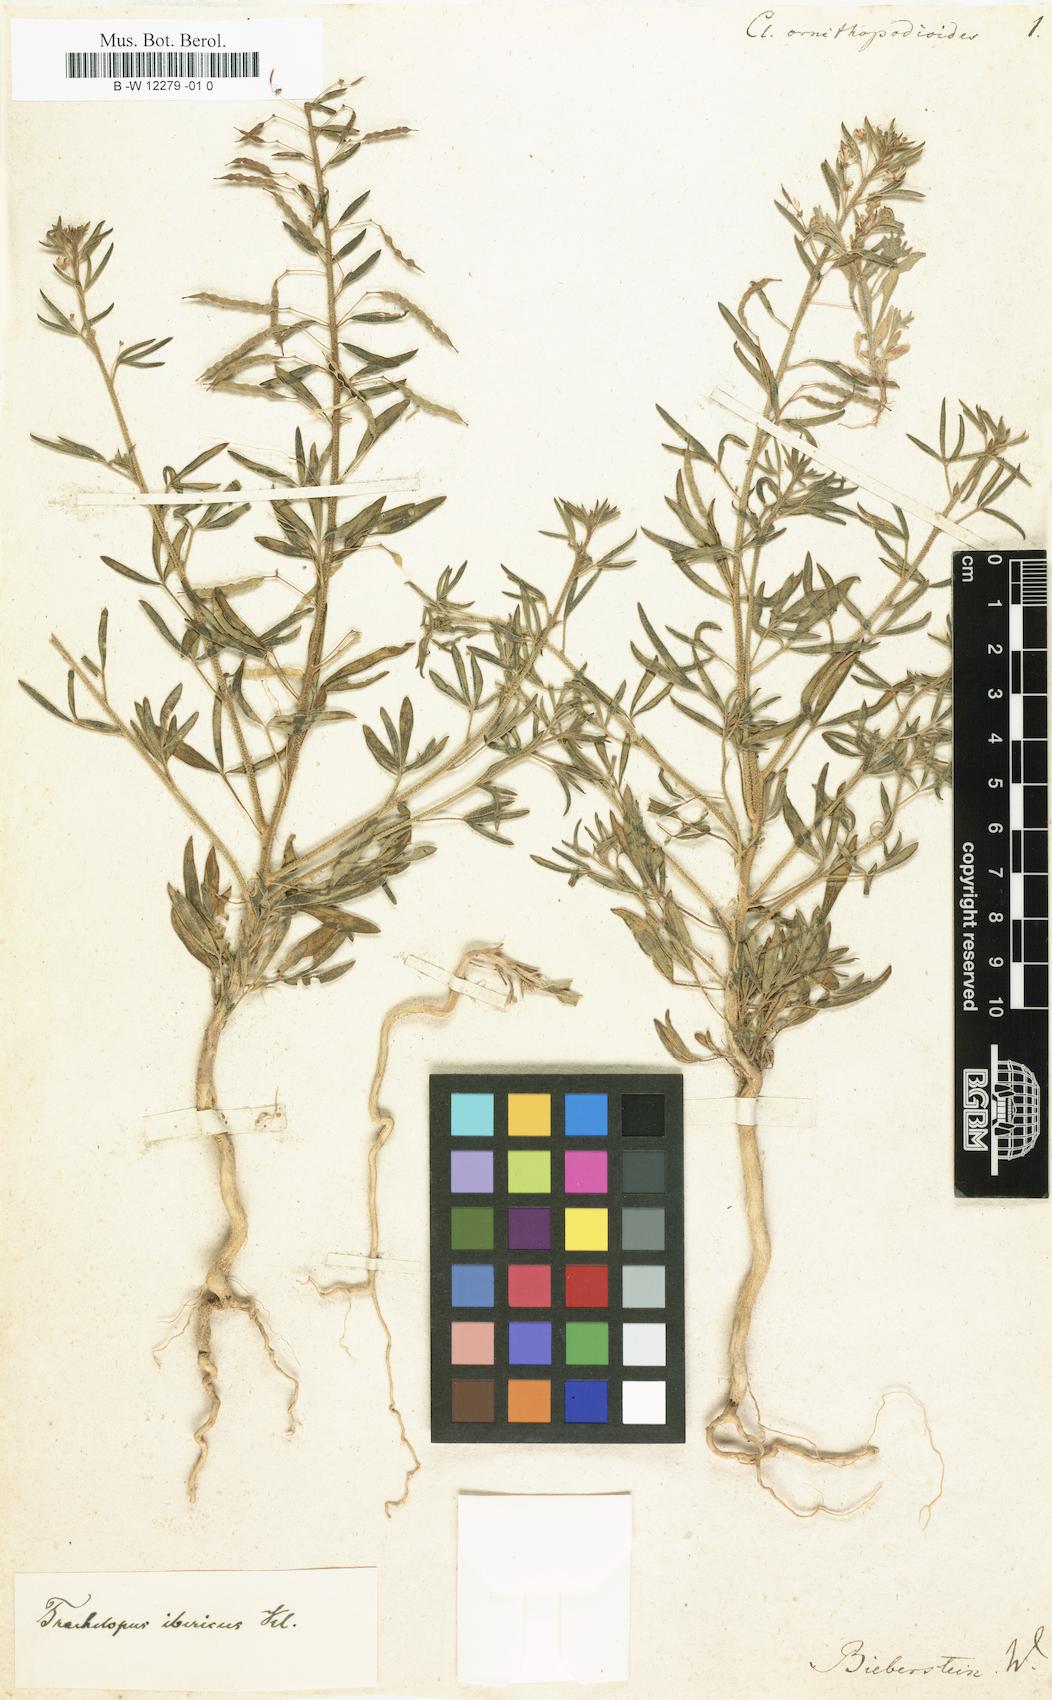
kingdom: Plantae
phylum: Tracheophyta
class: Magnoliopsida
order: Brassicales
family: Cleomaceae
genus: Cleome
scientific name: Cleome ornithopodioides
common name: Bird spiderflower
